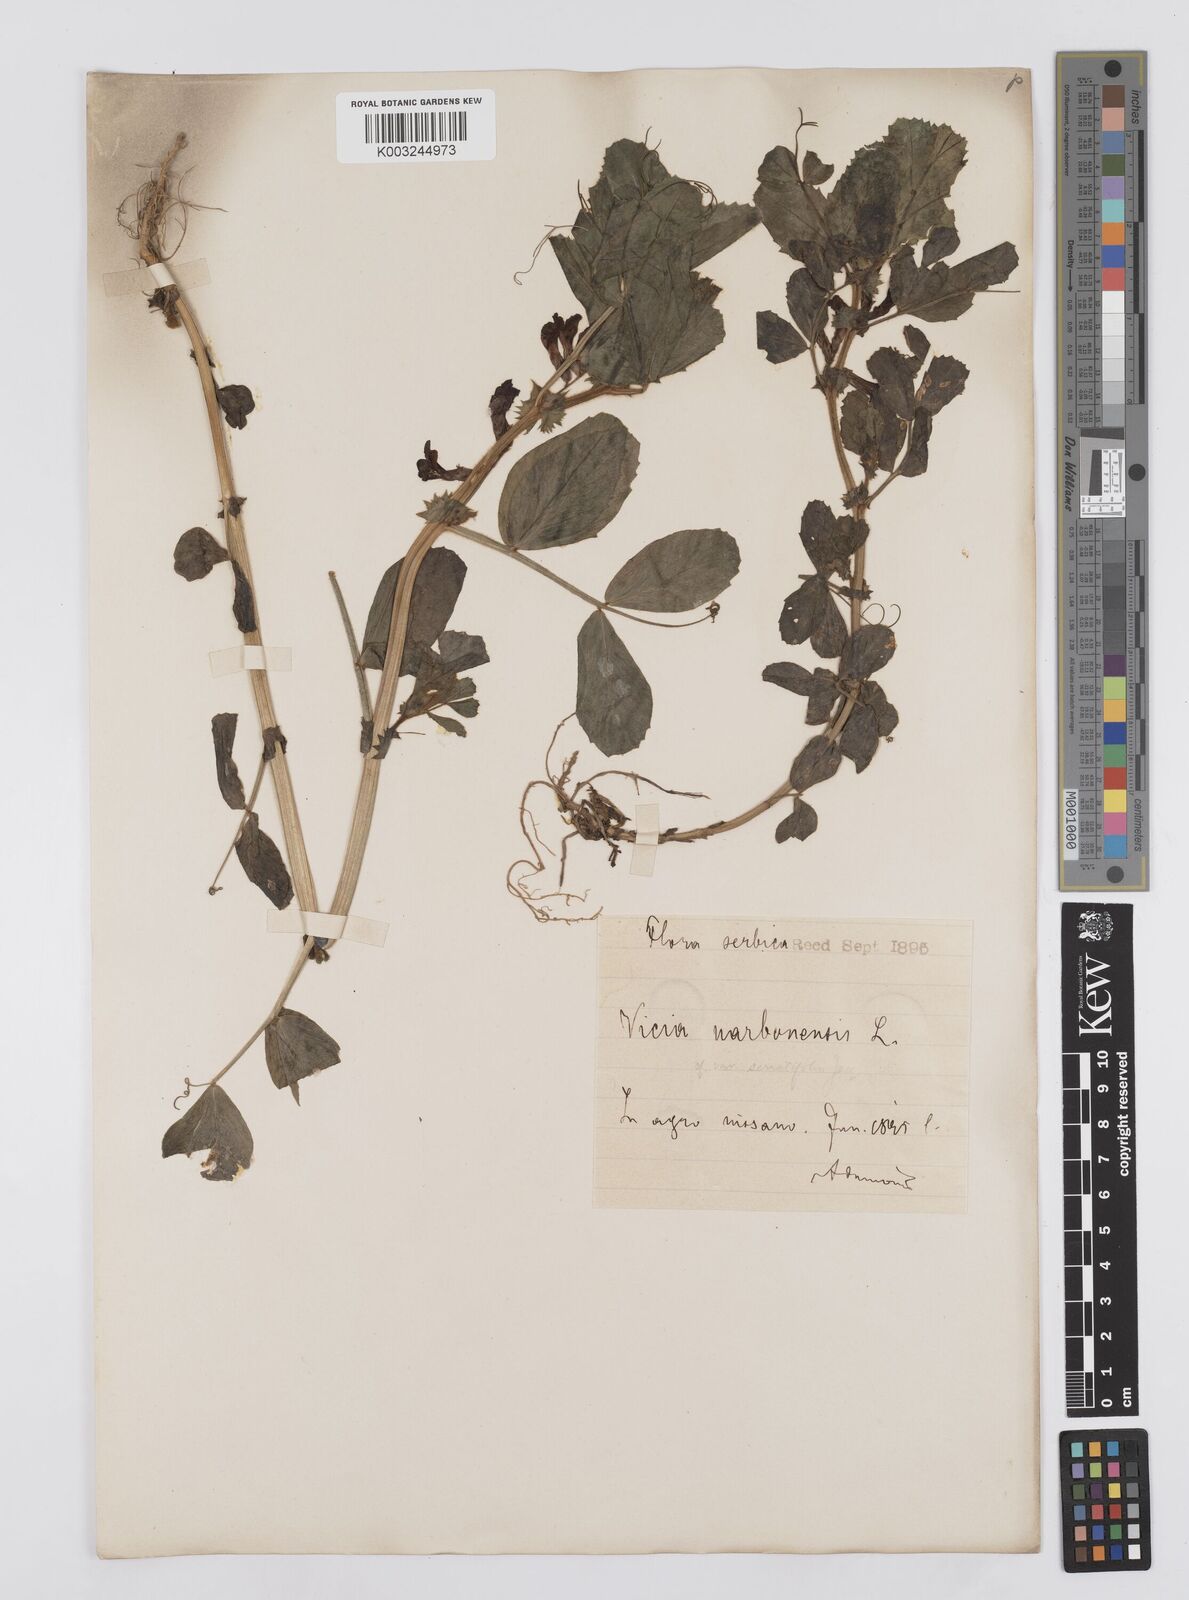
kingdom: Plantae
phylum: Tracheophyta
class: Magnoliopsida
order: Fabales
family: Fabaceae
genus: Vicia
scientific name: Vicia serratifolia
